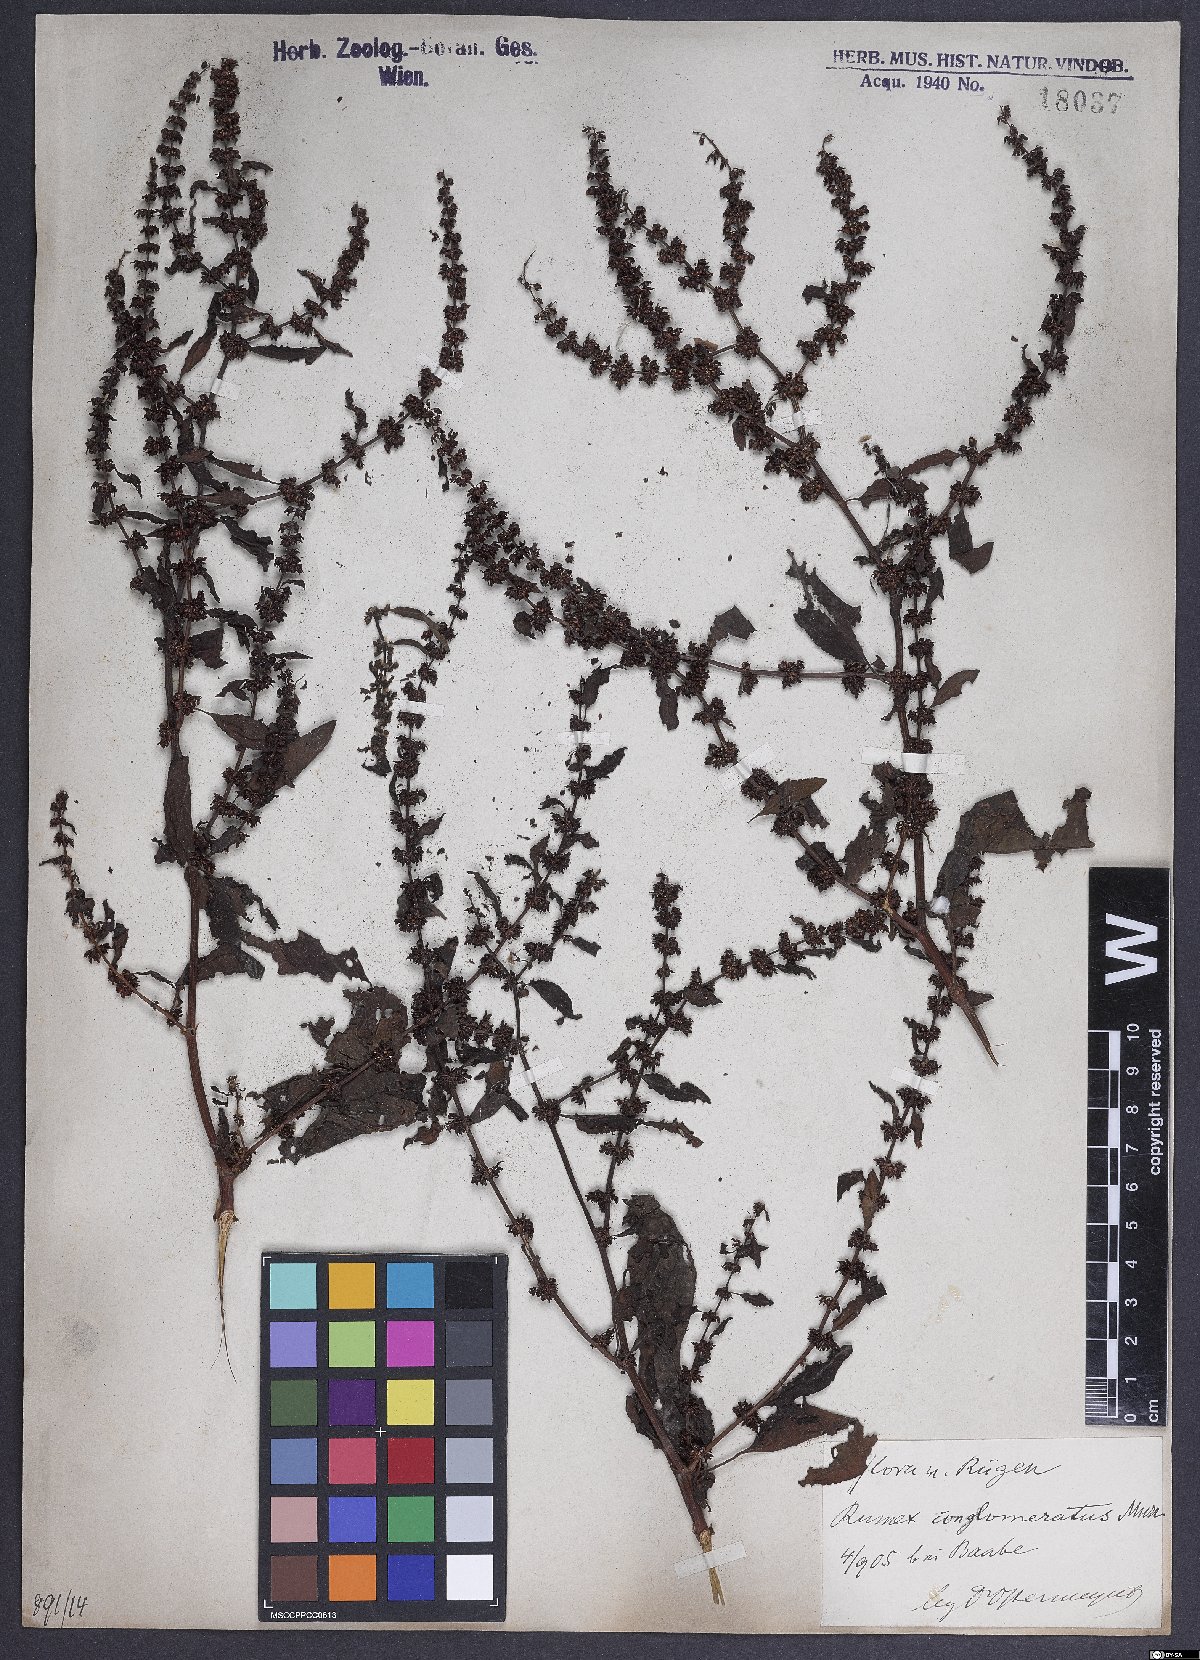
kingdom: Plantae
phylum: Tracheophyta
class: Magnoliopsida
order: Caryophyllales
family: Polygonaceae
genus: Rumex
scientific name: Rumex conglomeratus
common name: Clustered dock
